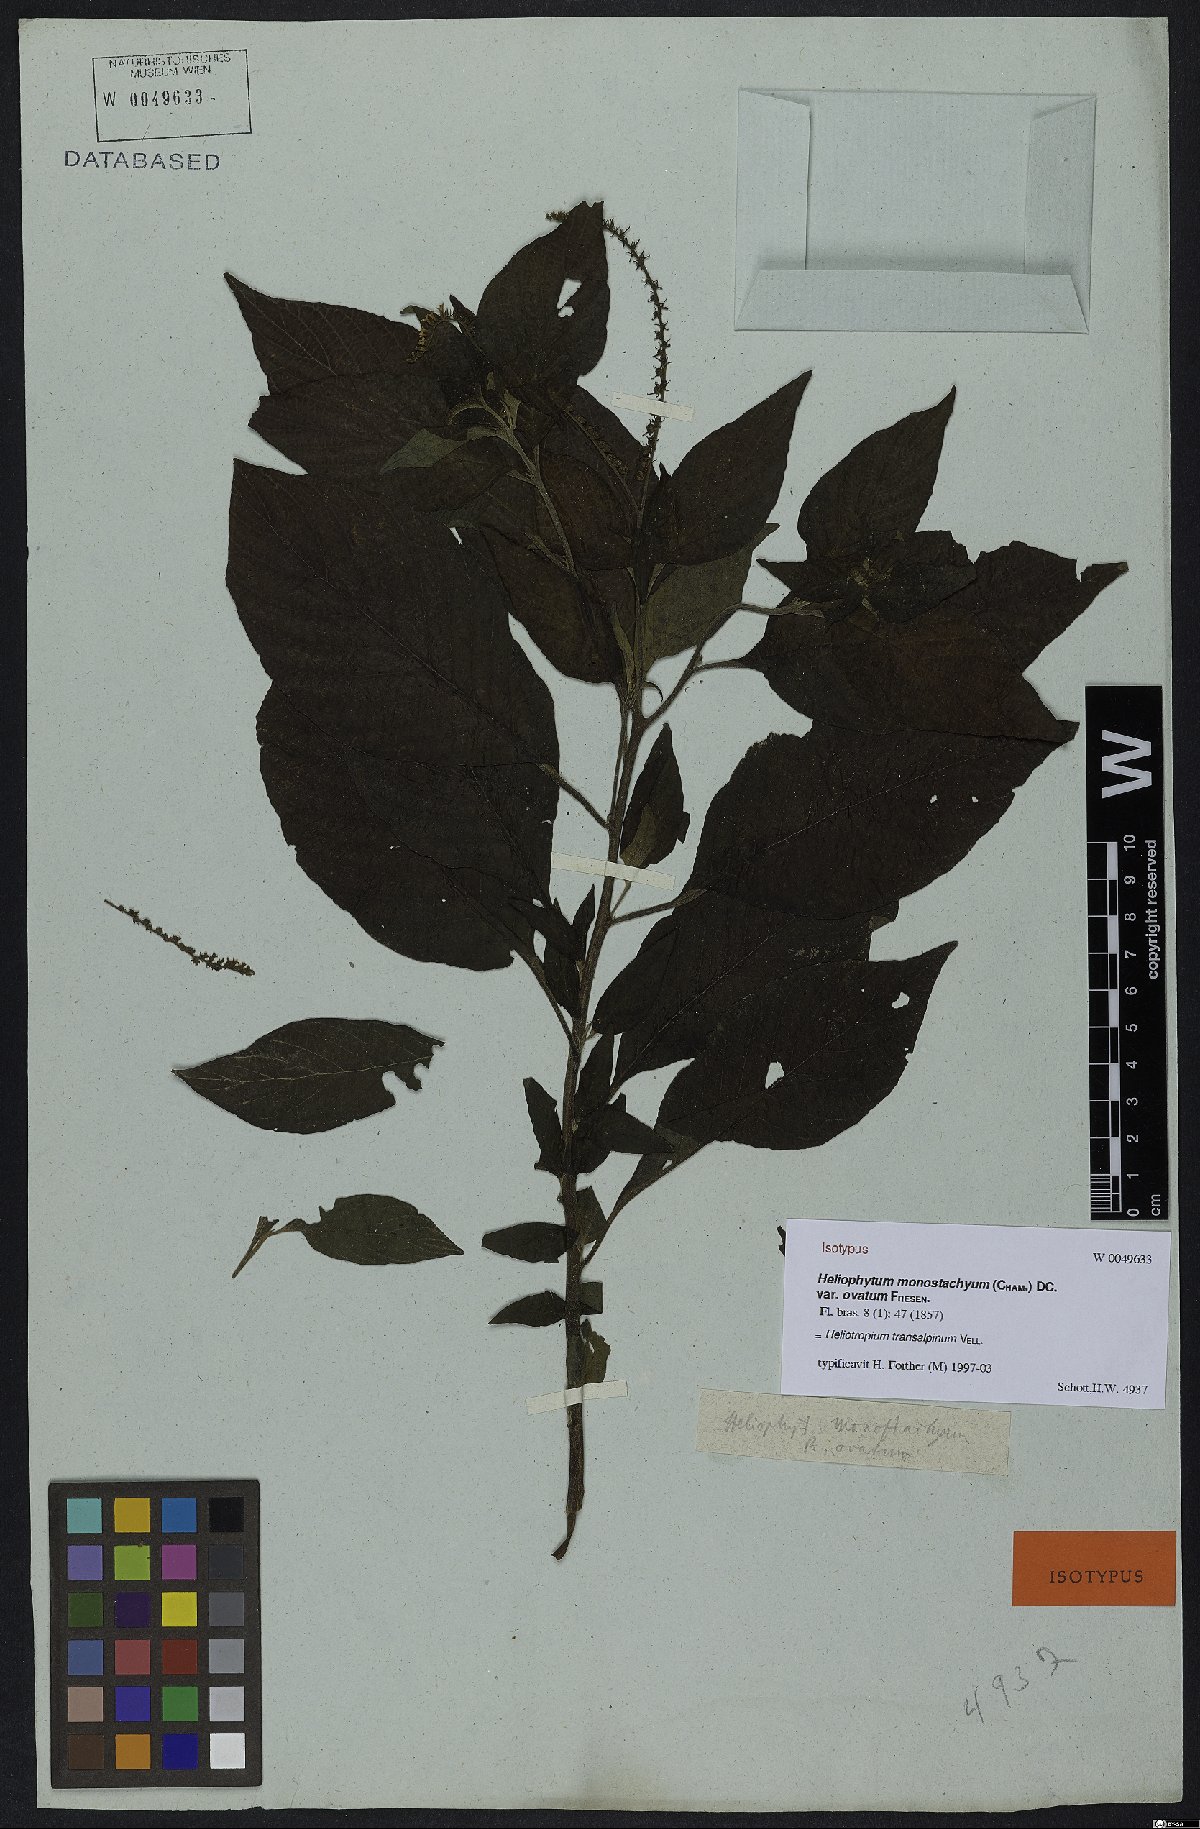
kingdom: Plantae
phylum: Tracheophyta
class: Magnoliopsida
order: Boraginales
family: Heliotropiaceae
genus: Heliotropium
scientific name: Heliotropium transalpinum
